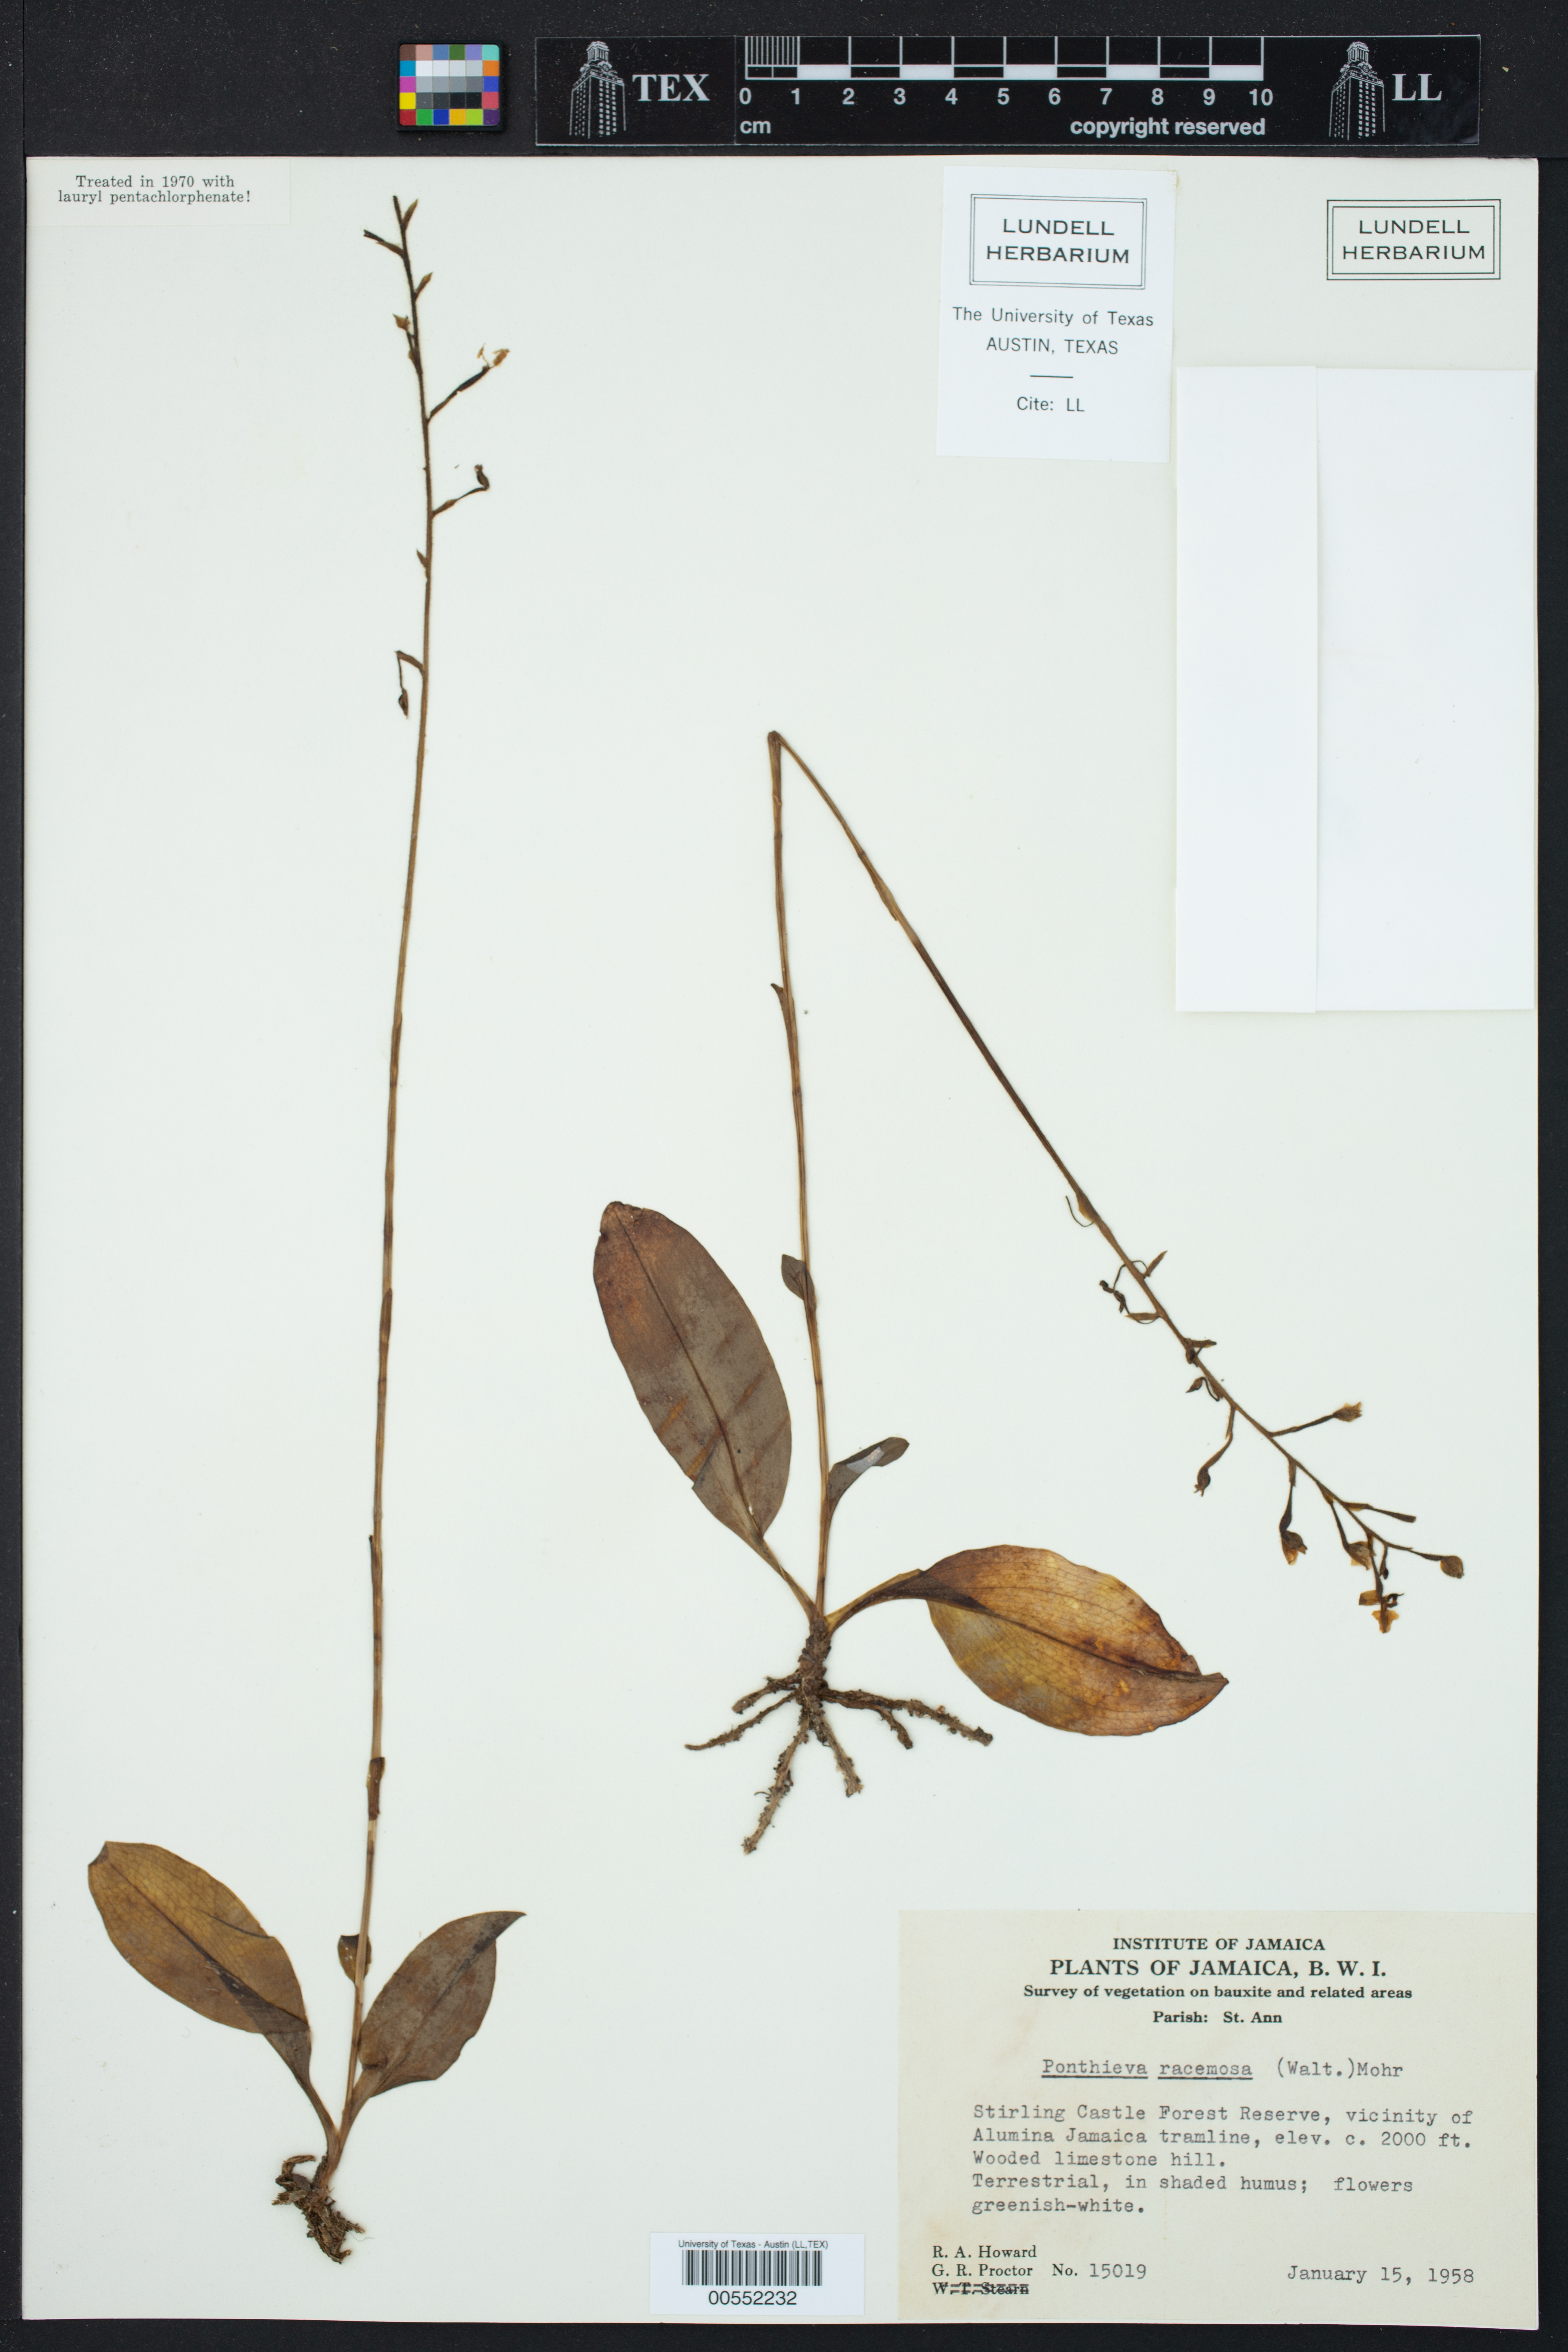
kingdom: Plantae
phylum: Tracheophyta
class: Liliopsida
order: Asparagales
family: Orchidaceae
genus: Ponthieva
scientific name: Ponthieva racemosa
